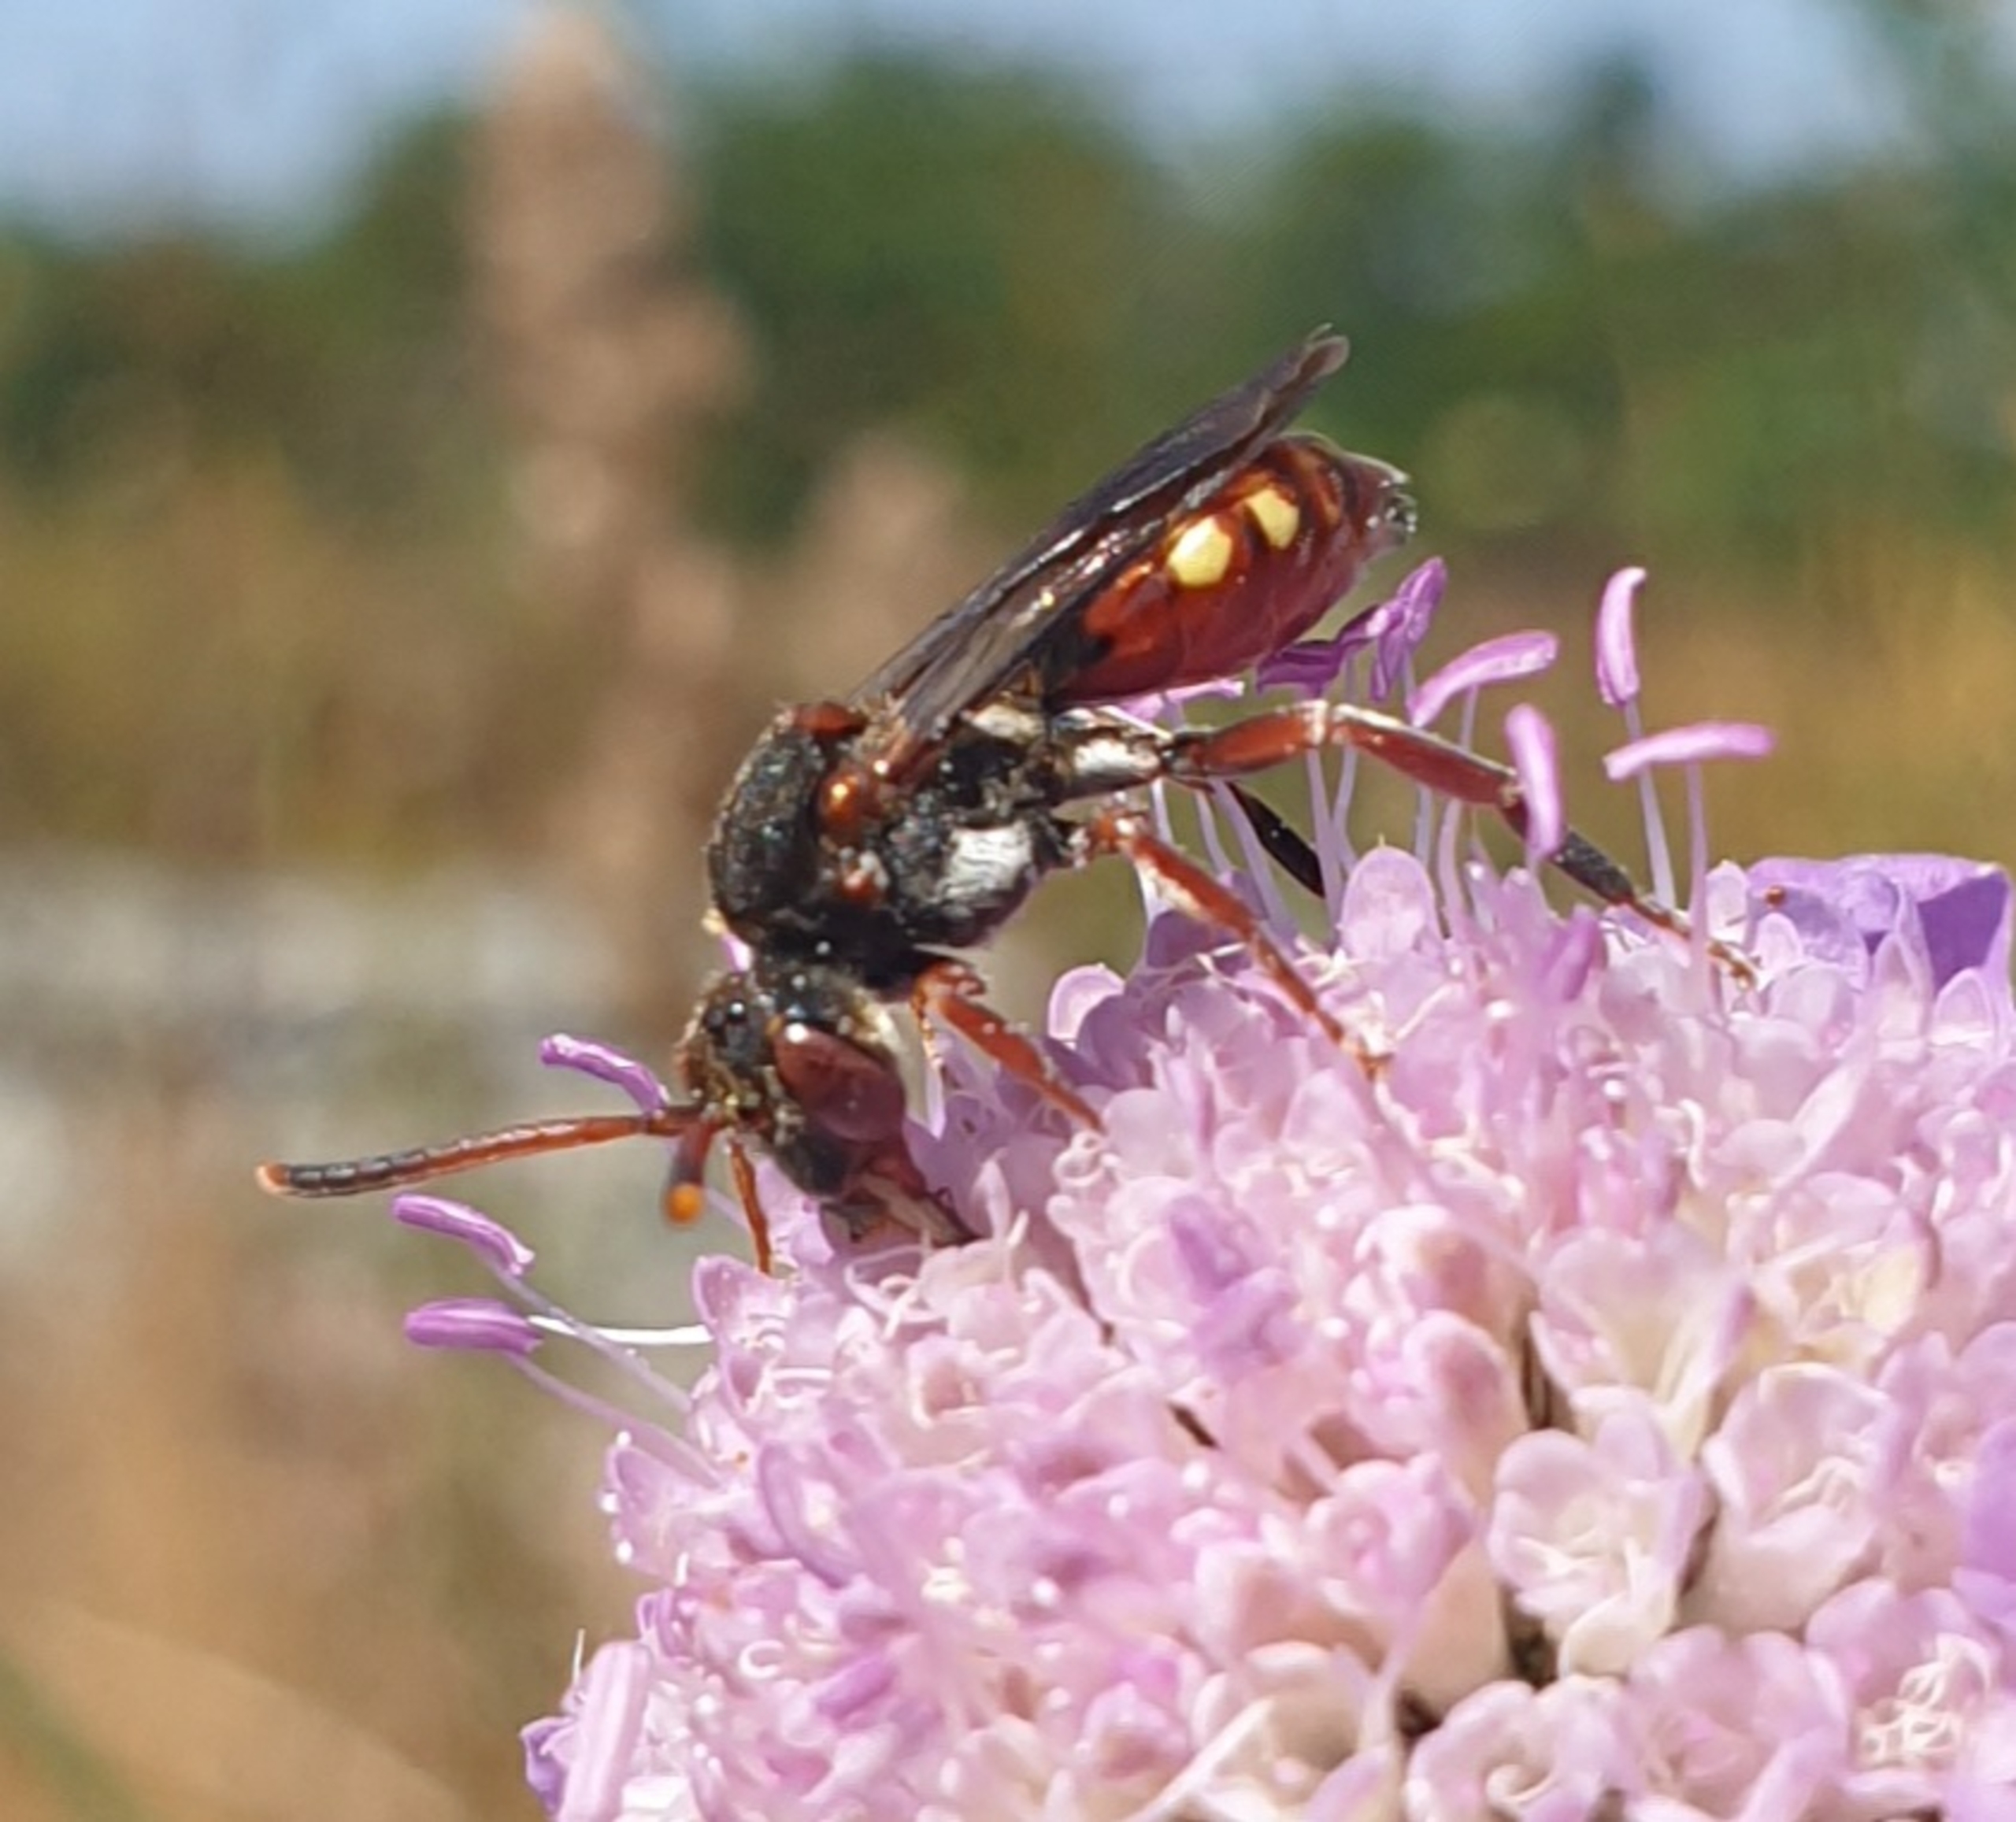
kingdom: Animalia
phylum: Arthropoda
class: Insecta
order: Hymenoptera
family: Apidae
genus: Nomada
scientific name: Nomada armata
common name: Blåhathvepsebi
